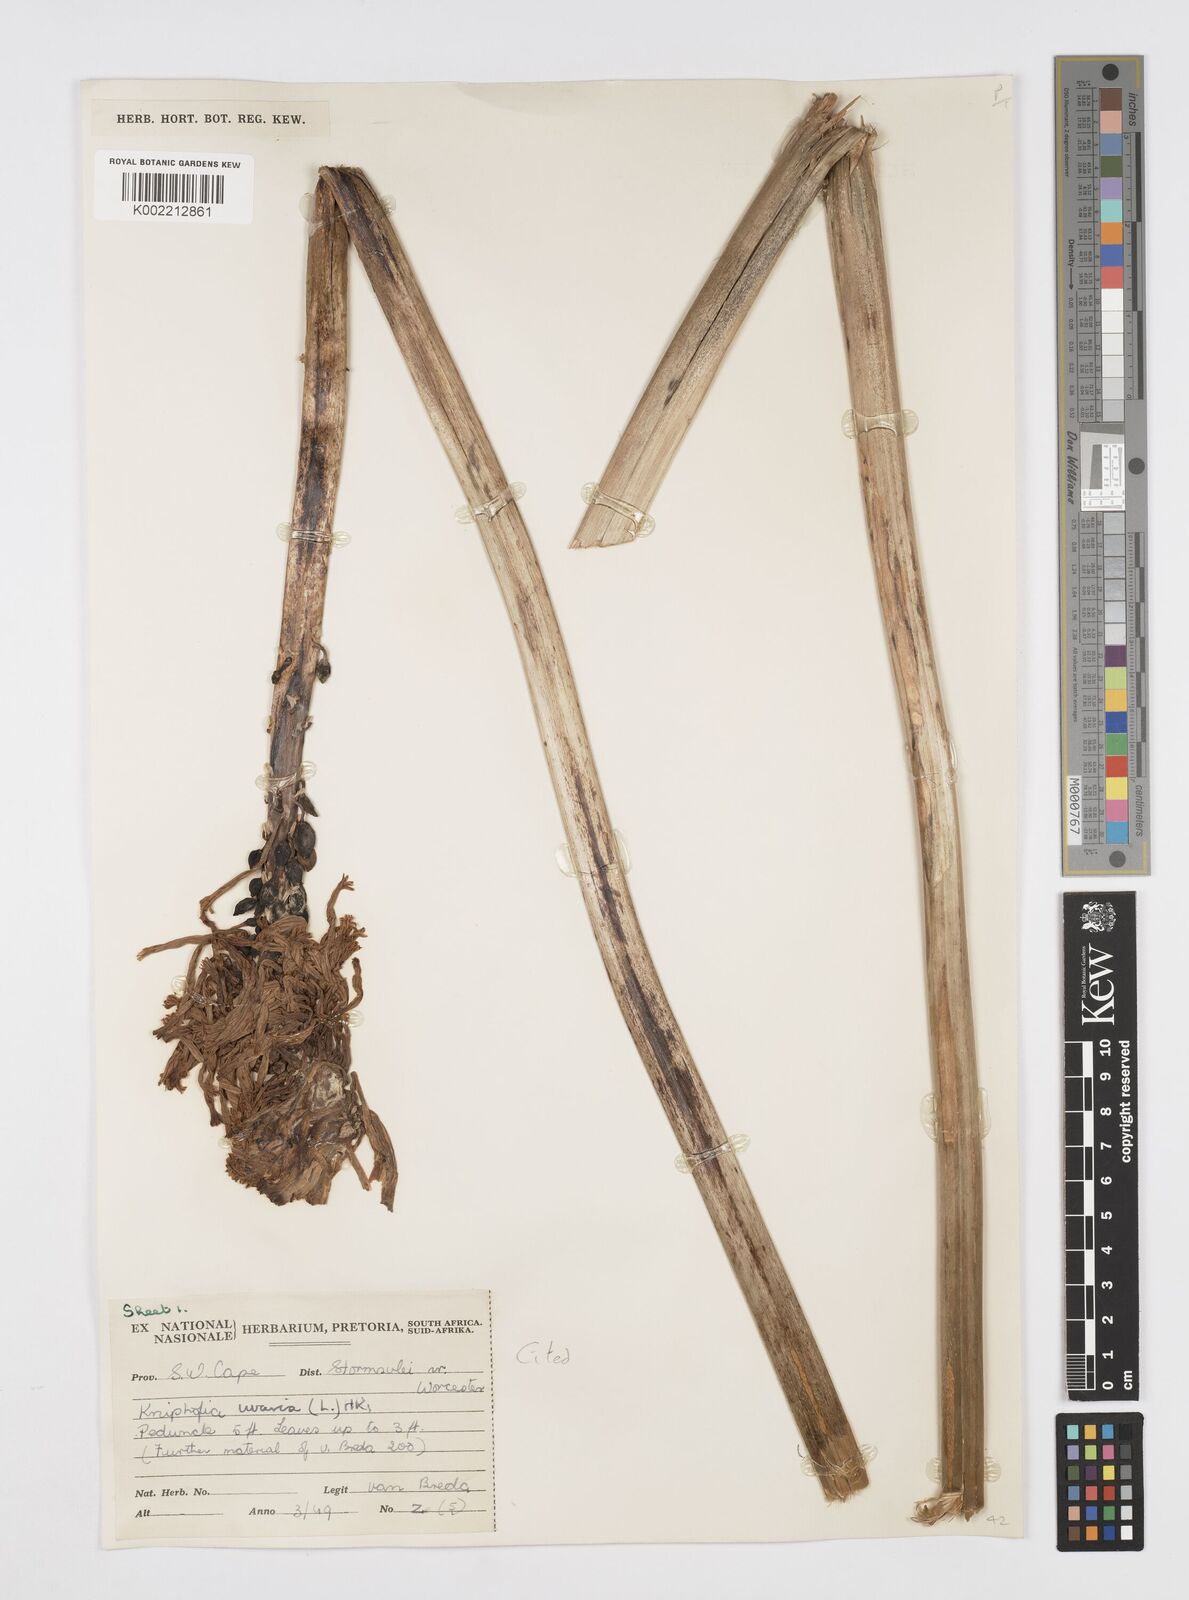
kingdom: Plantae
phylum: Tracheophyta
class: Liliopsida
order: Asparagales
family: Asphodelaceae
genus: Kniphofia
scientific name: Kniphofia uvaria
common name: Red-hot-poker
